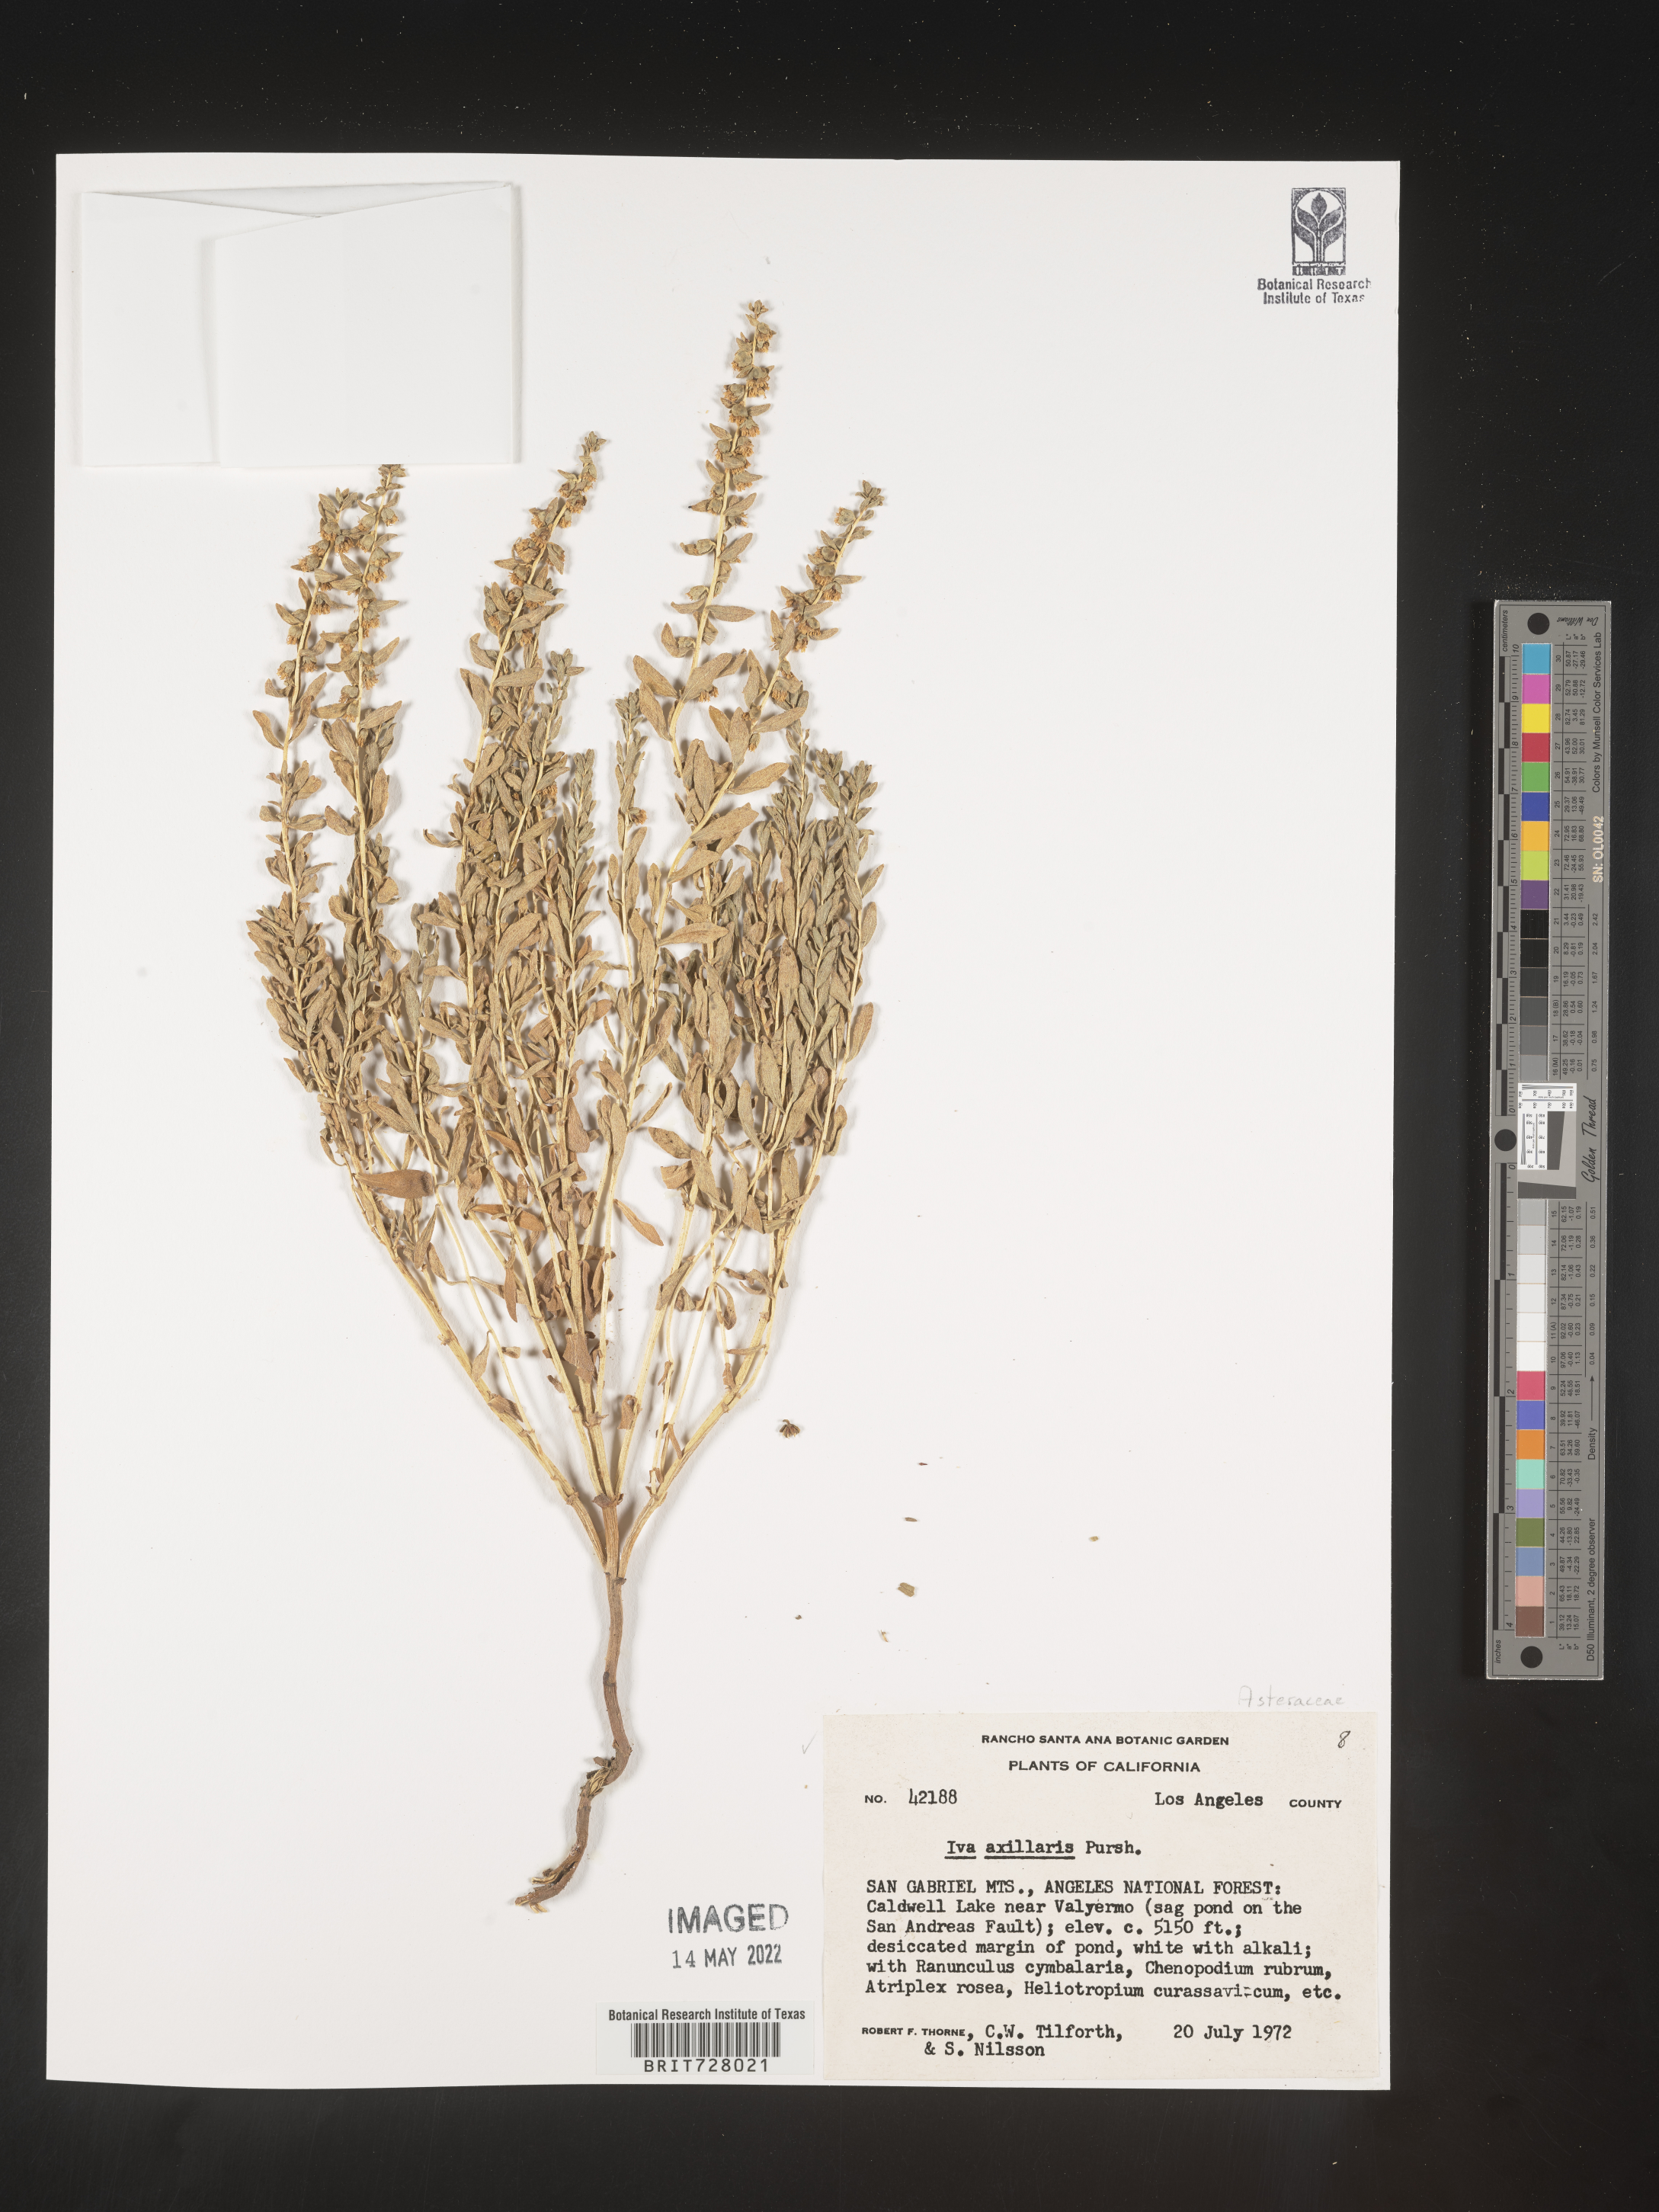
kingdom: Plantae
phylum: Tracheophyta
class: Magnoliopsida
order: Asterales
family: Asteraceae
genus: Iva
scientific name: Iva axillaris
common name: Poverty sumpweed
